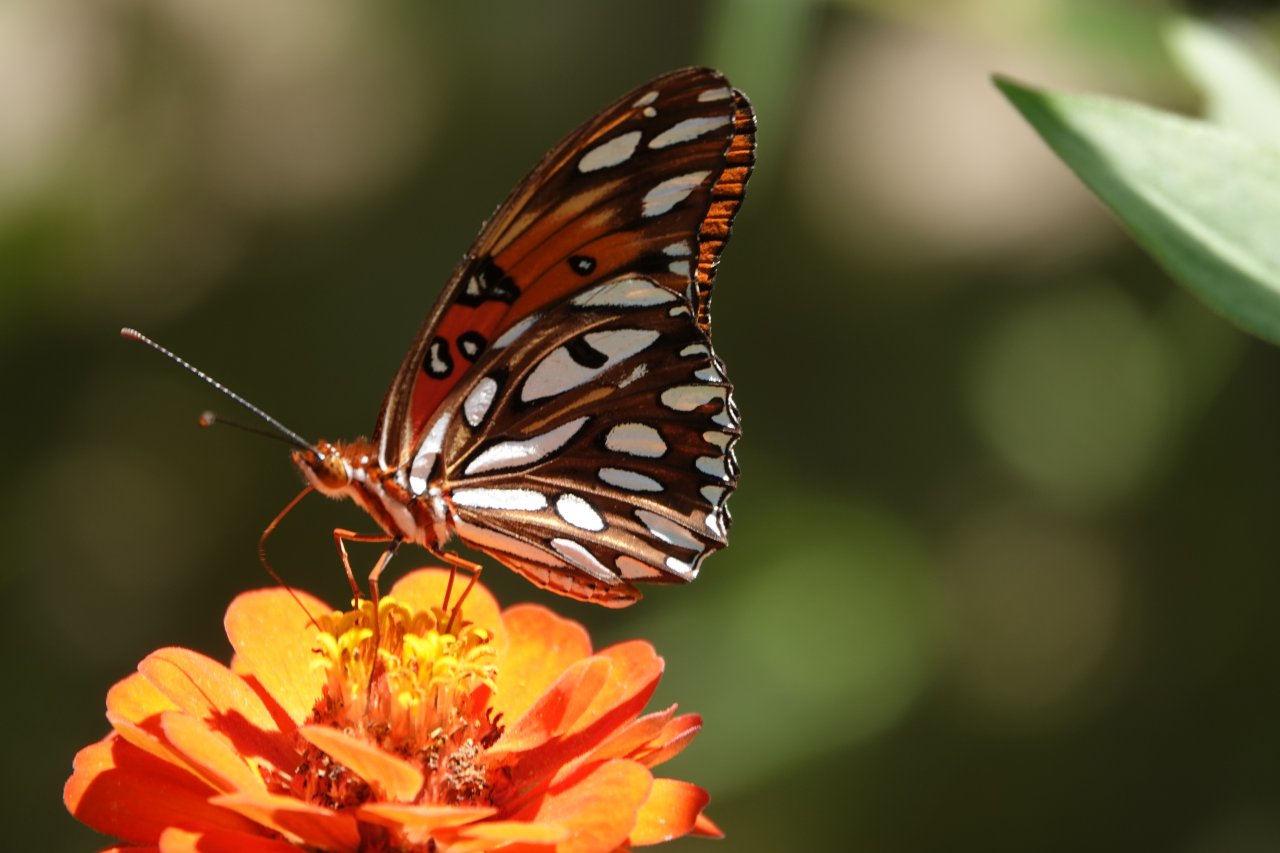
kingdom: Animalia
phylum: Arthropoda
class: Insecta
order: Lepidoptera
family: Nymphalidae
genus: Dione
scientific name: Dione vanillae
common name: Gulf Fritillary
